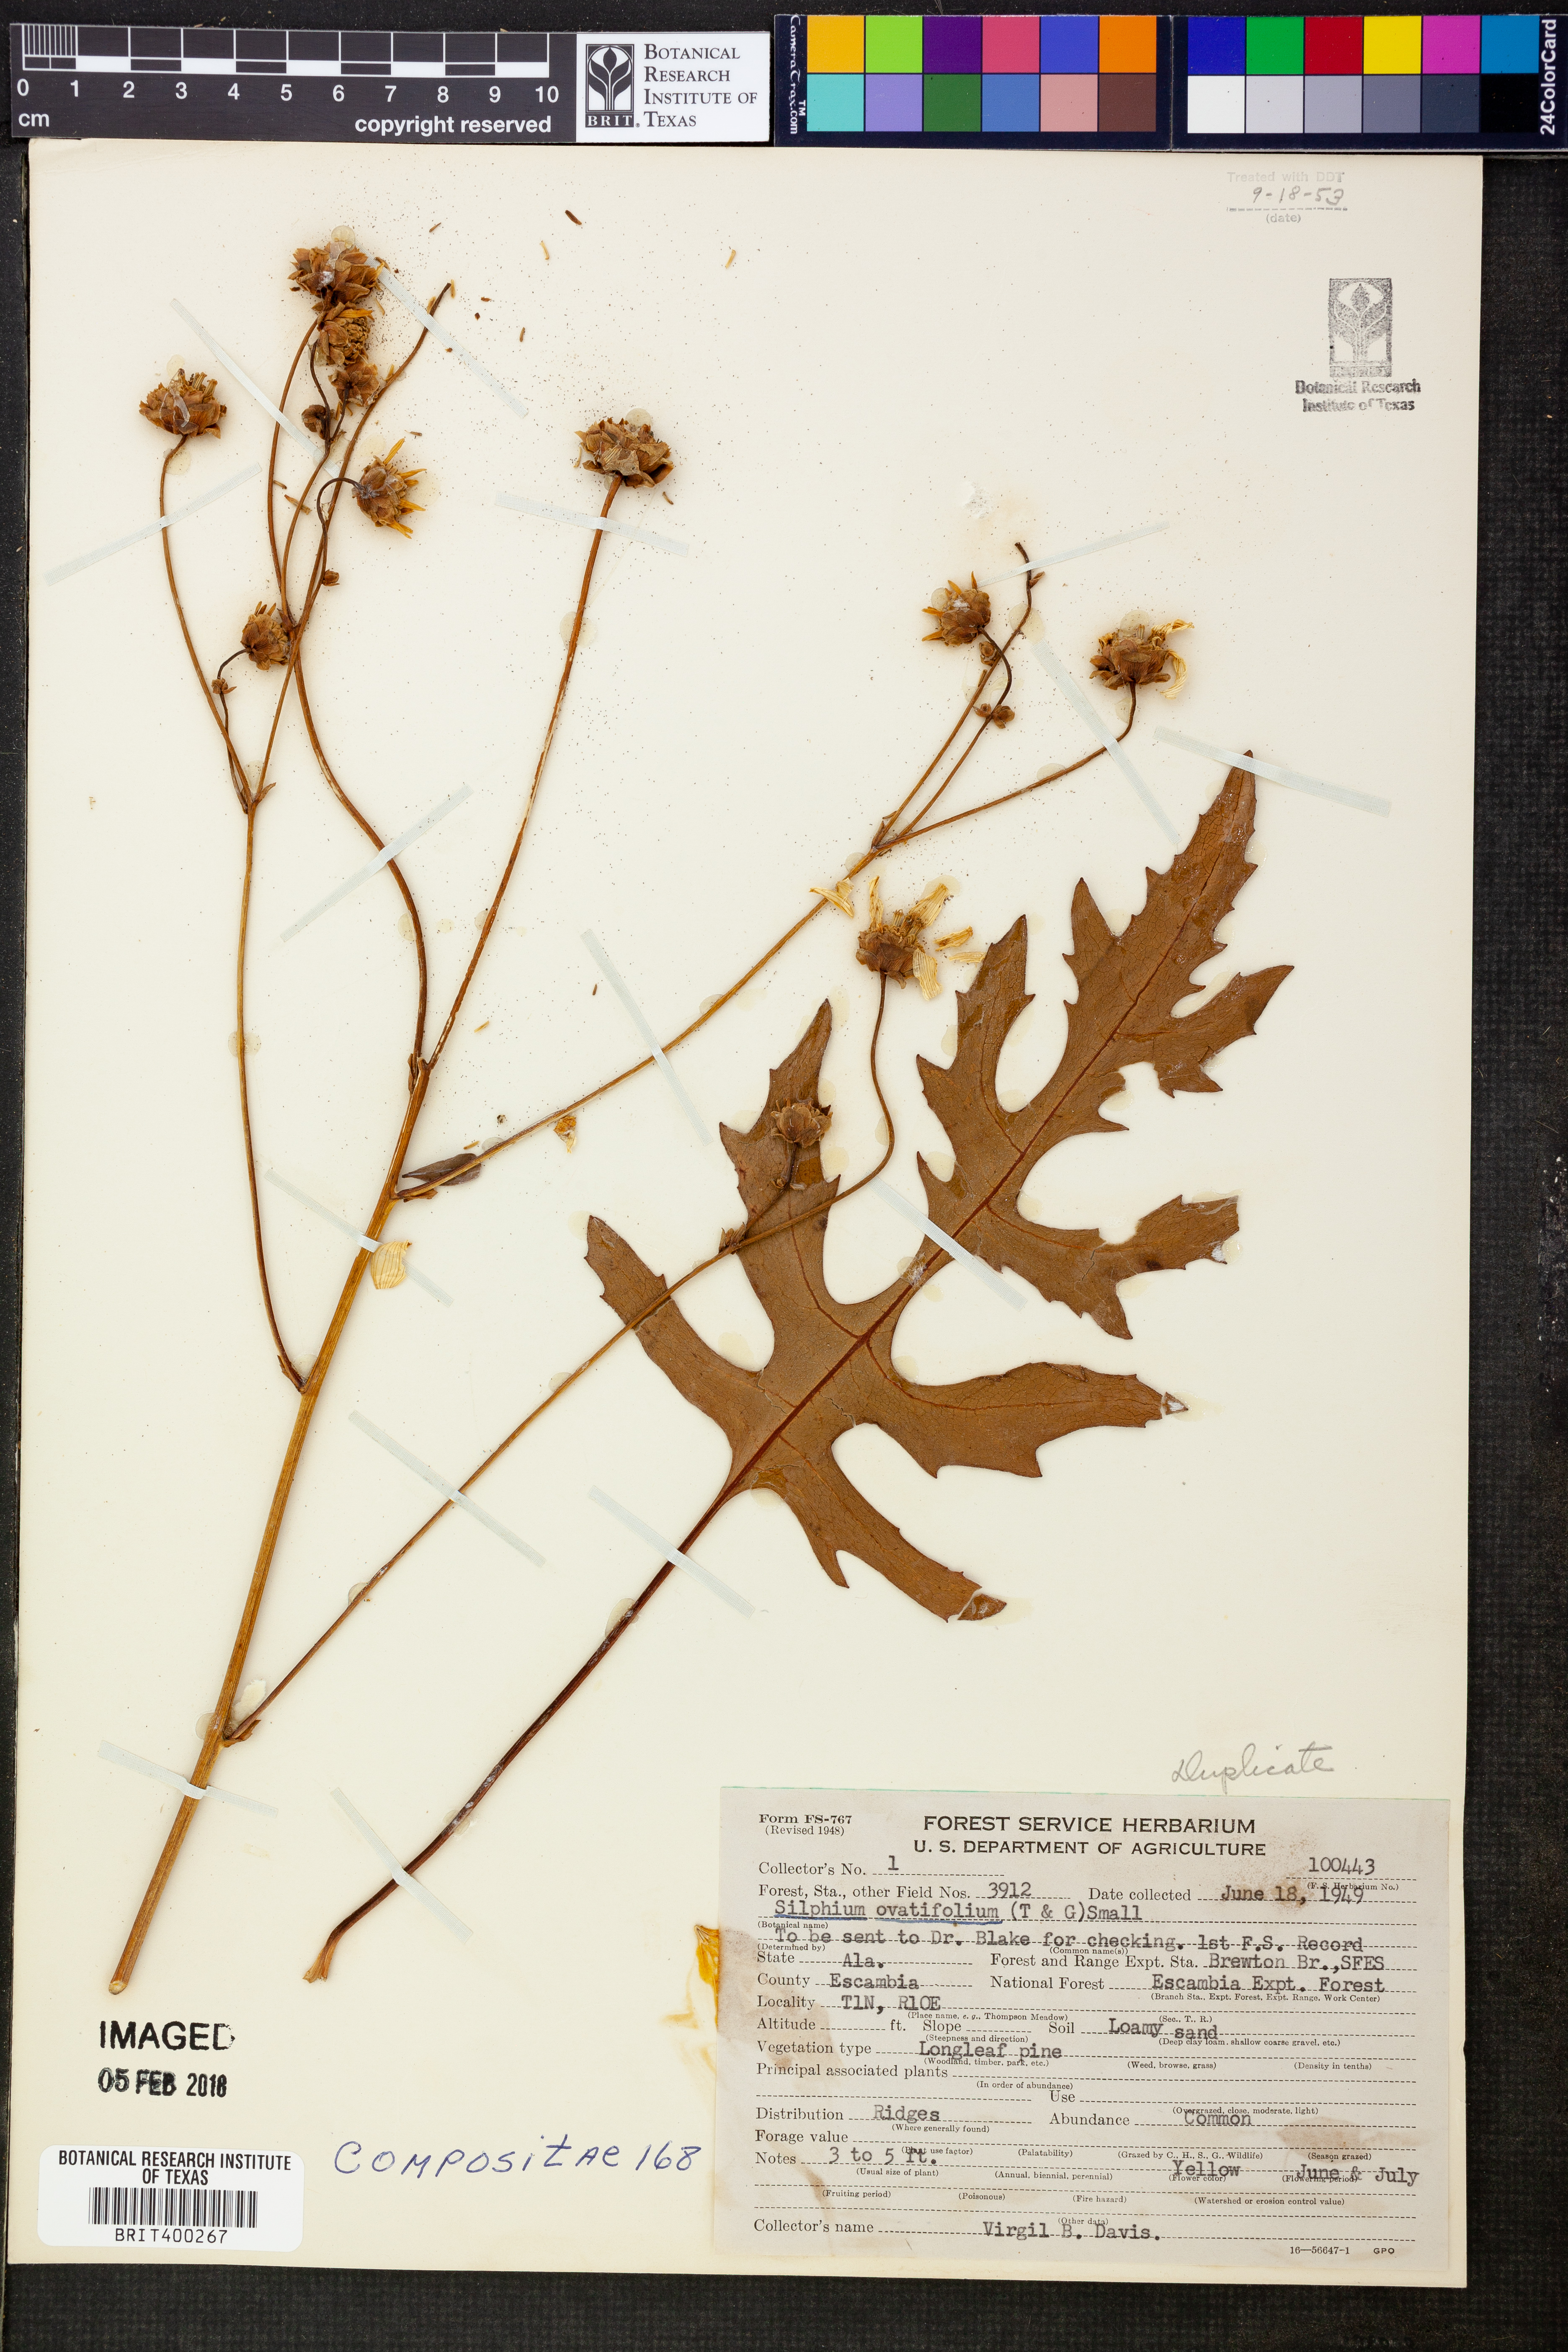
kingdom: Plantae
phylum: Tracheophyta
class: Magnoliopsida
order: Asterales
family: Asteraceae
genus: Silphium
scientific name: Silphium compositum
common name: Lesser basal-leaf rosinweed
